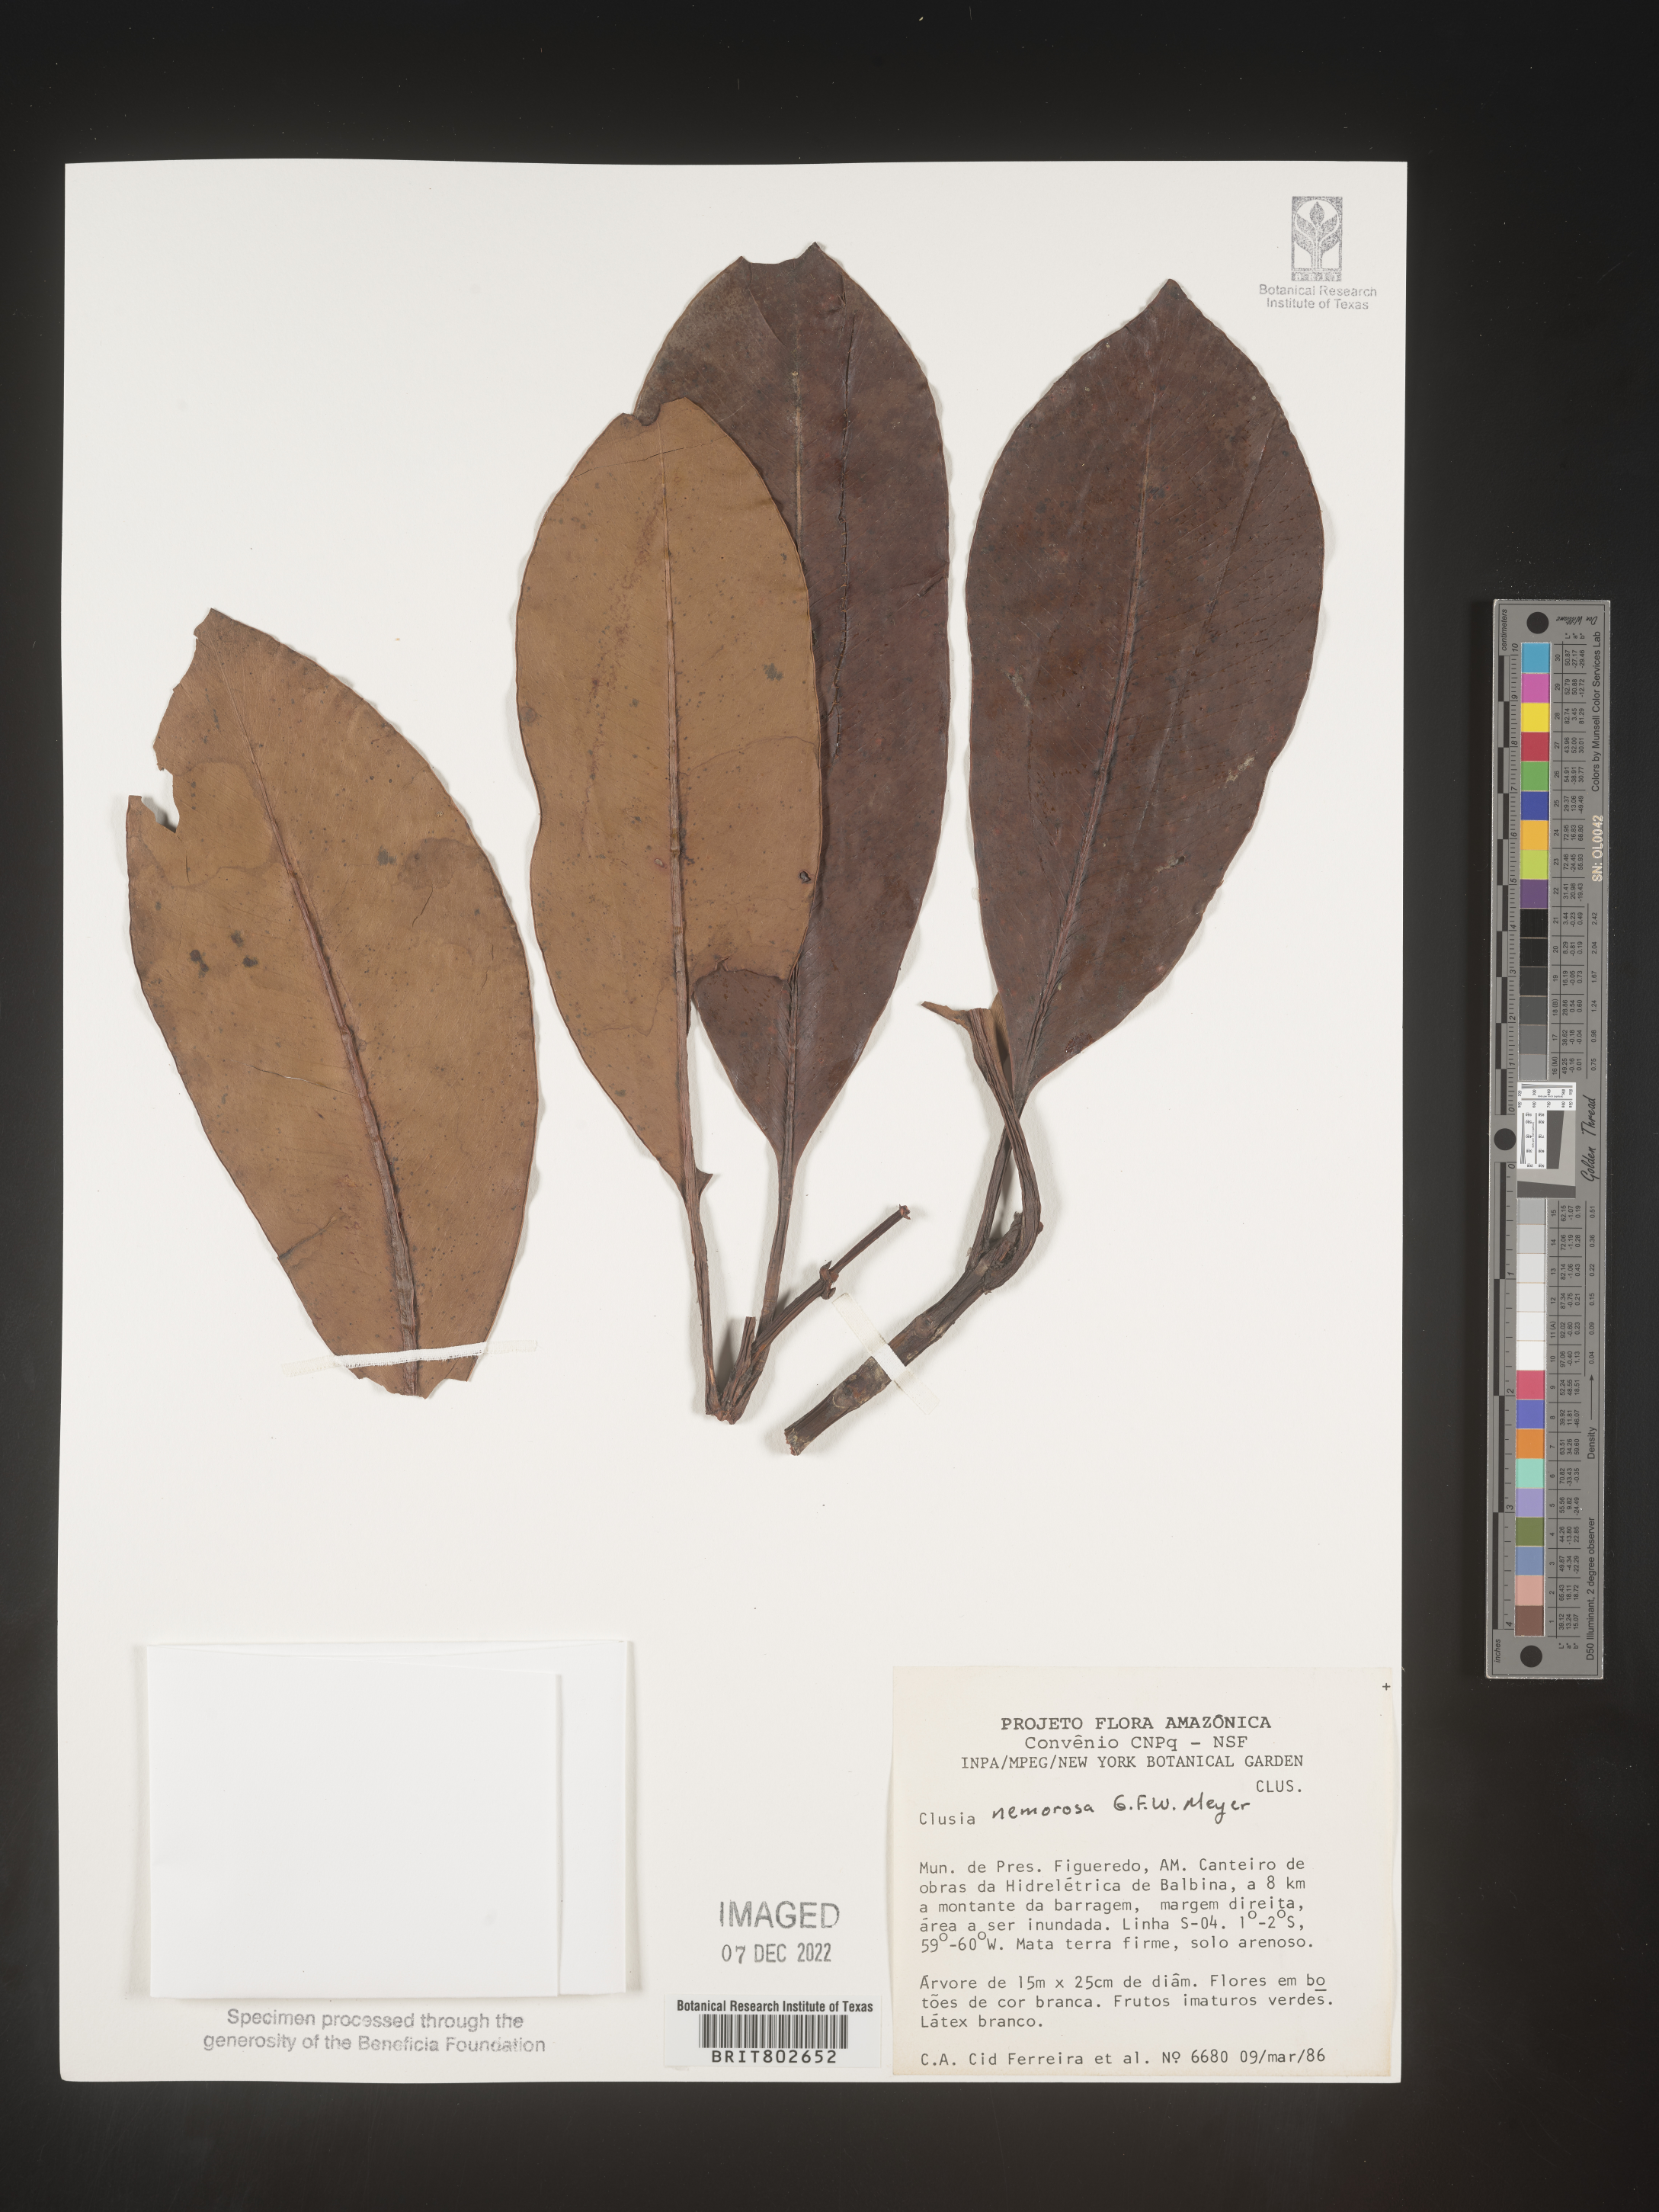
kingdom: Plantae
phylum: Tracheophyta
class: Magnoliopsida
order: Malpighiales
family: Clusiaceae
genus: Clusia
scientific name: Clusia nemorosa
